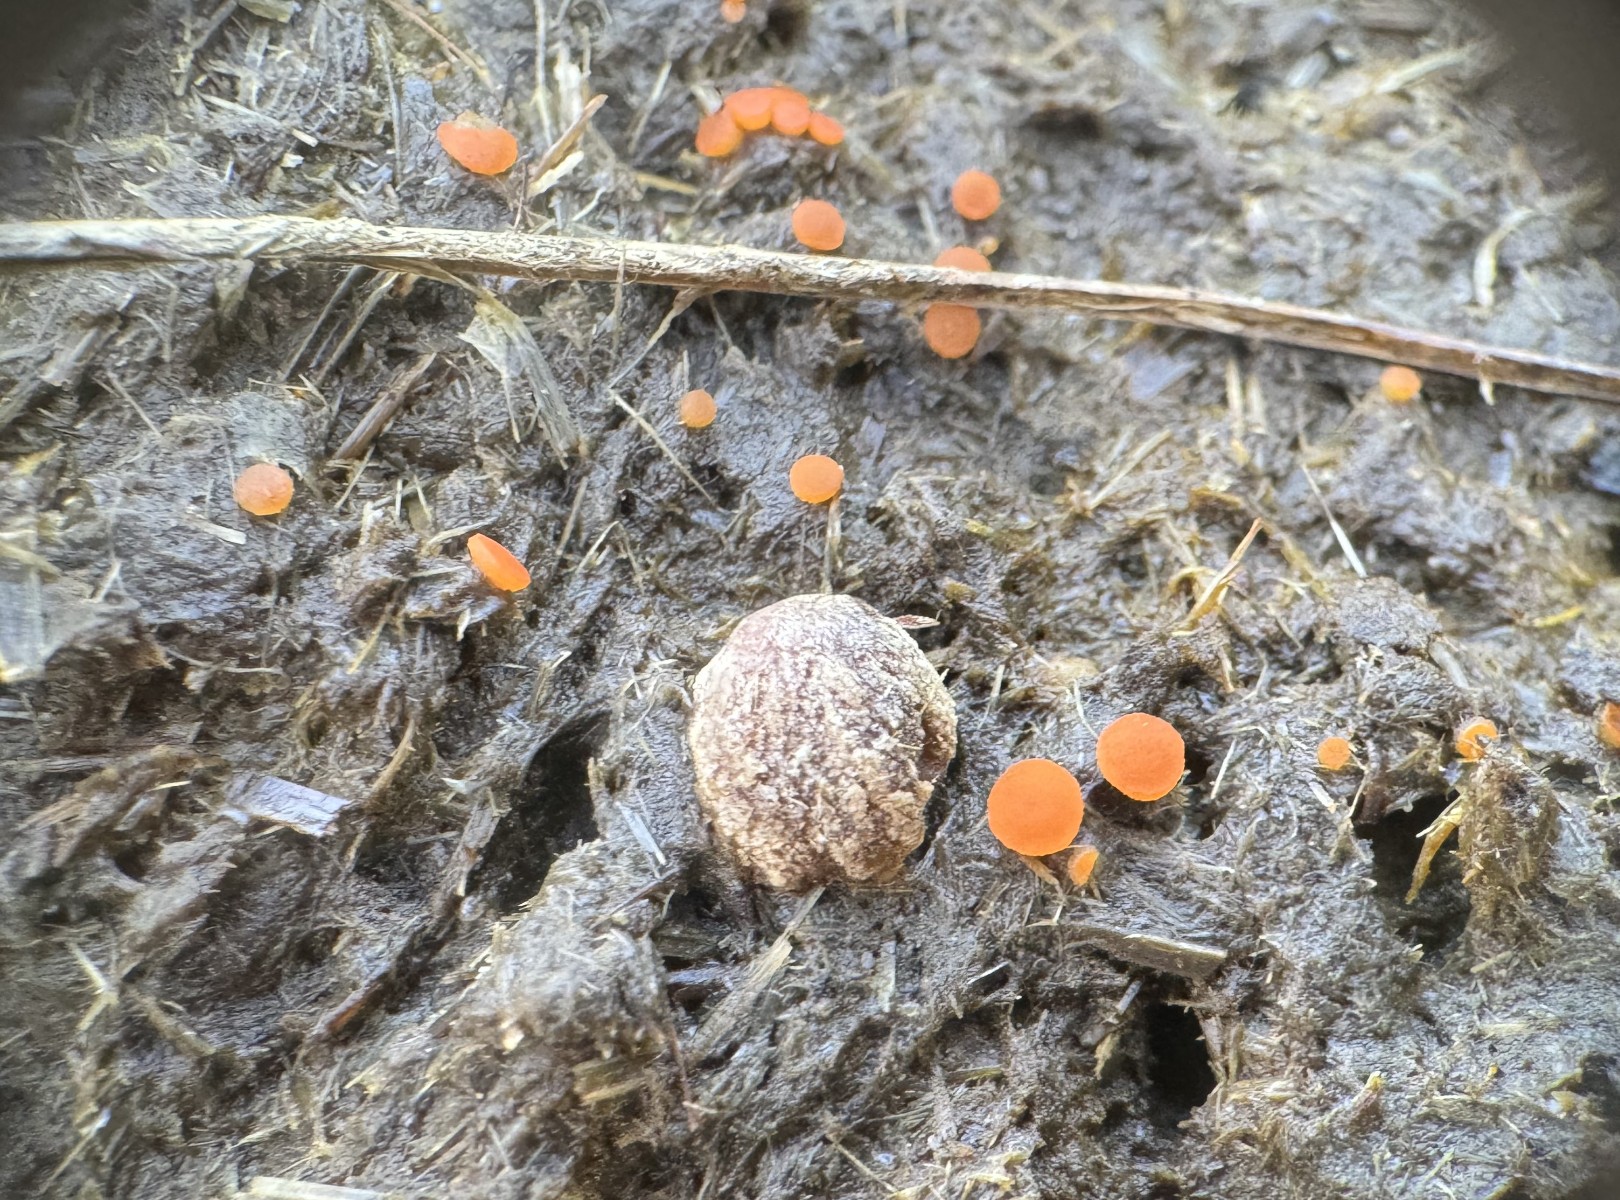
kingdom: Fungi
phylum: Ascomycota
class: Pezizomycetes
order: Pezizales
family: Pyronemataceae
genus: Cheilymenia
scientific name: Cheilymenia granulata
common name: møgbæger
